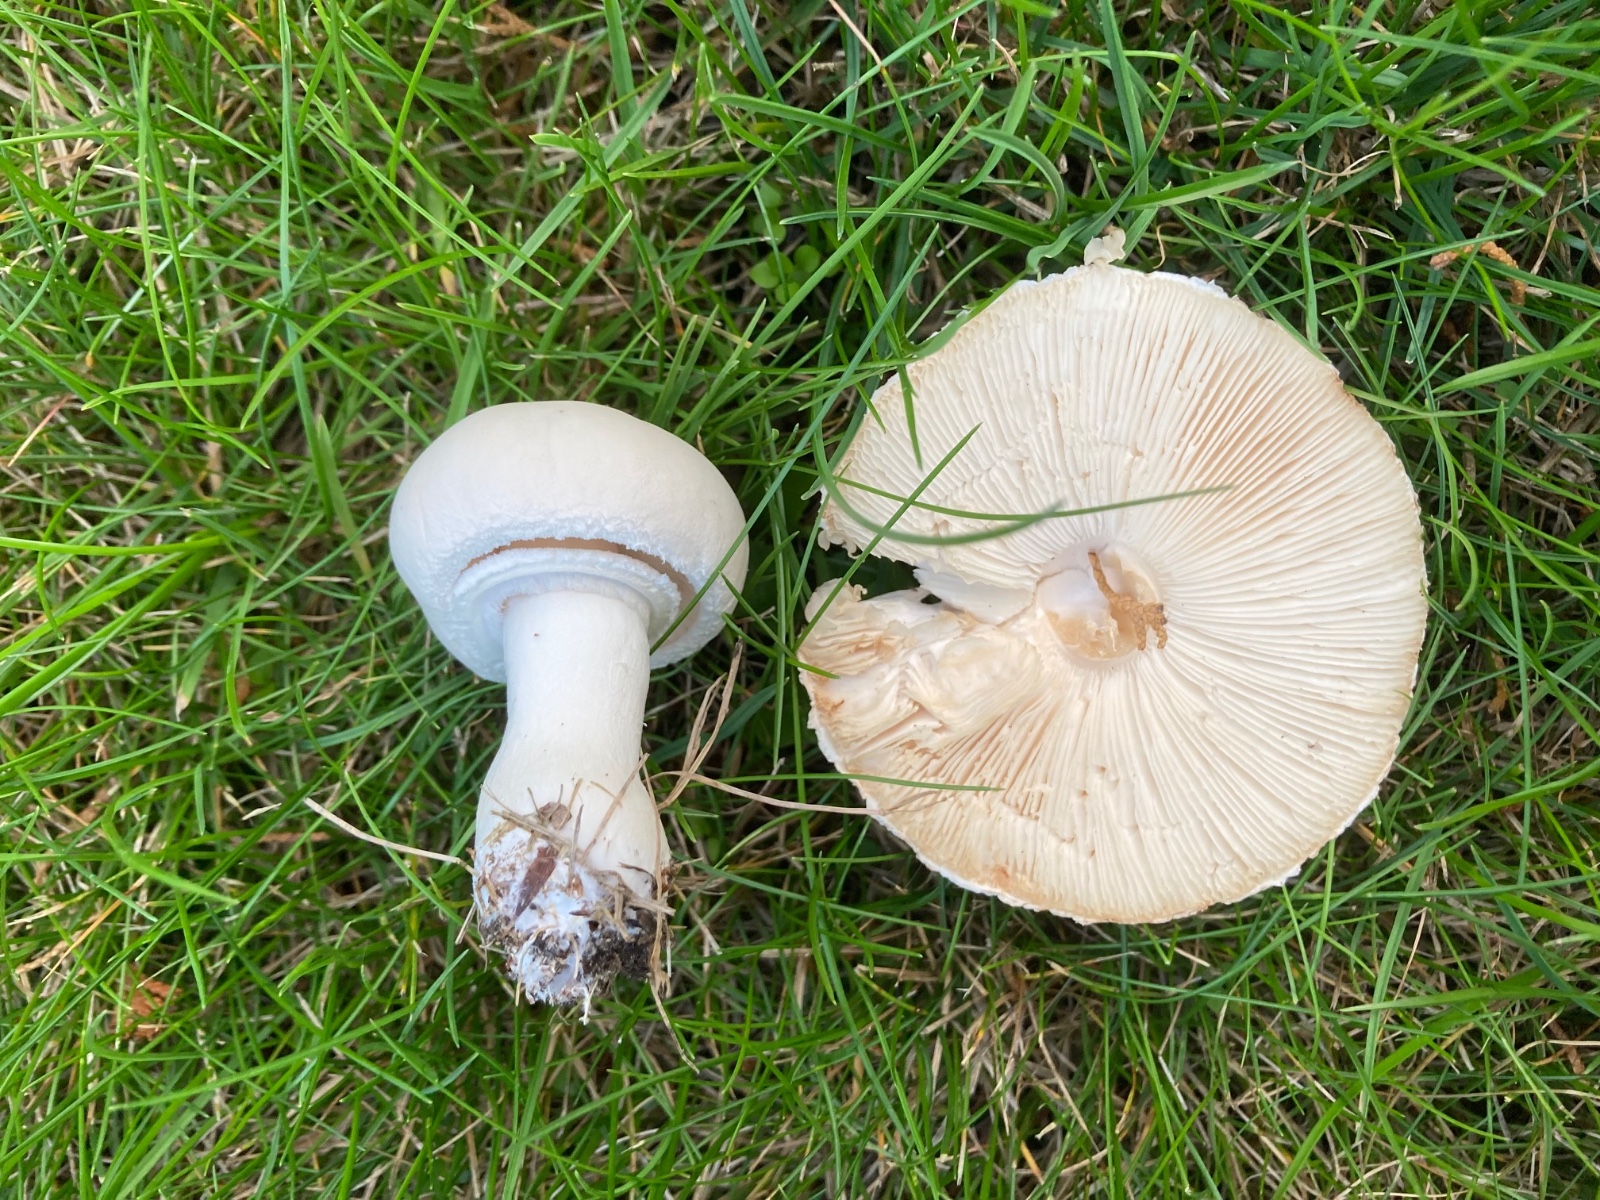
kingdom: Fungi
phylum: Basidiomycota
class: Agaricomycetes
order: Agaricales
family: Agaricaceae
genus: Leucoagaricus
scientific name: Leucoagaricus leucothites
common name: rosabladet silkehat
